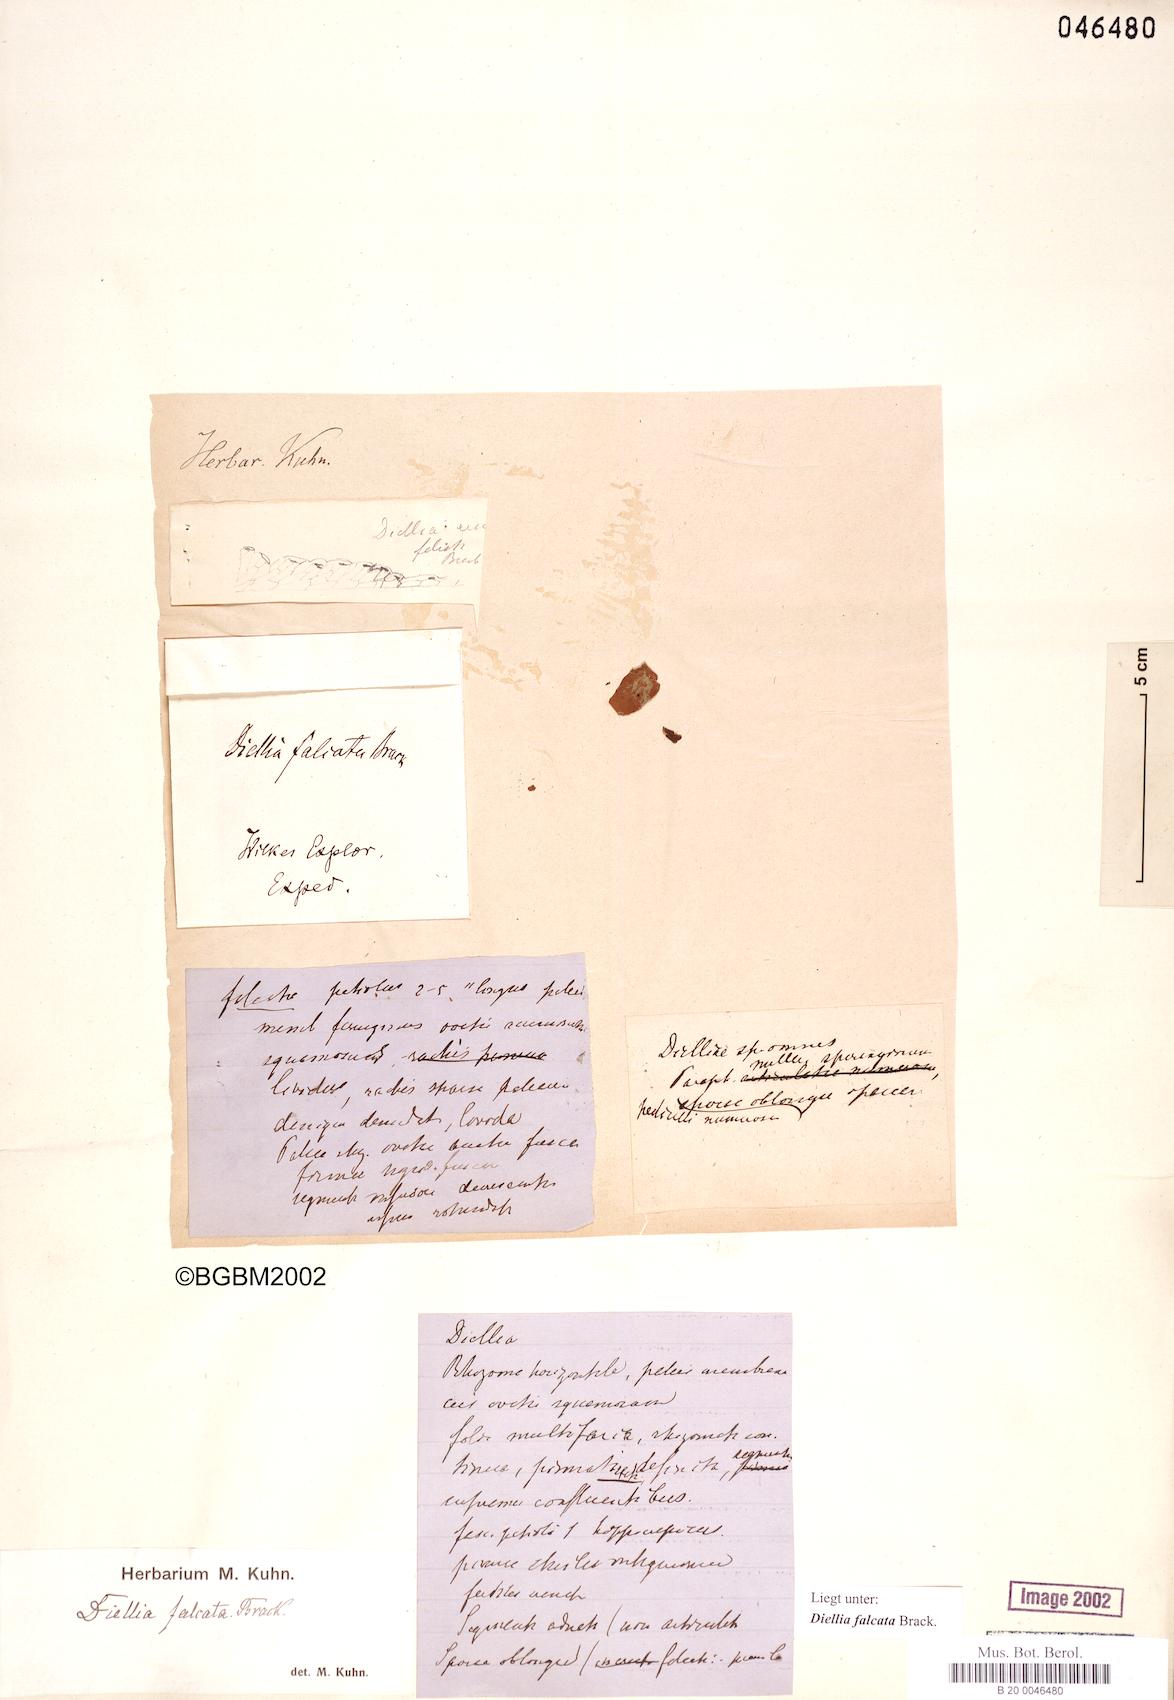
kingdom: Plantae
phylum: Tracheophyta
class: Polypodiopsida
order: Polypodiales
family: Aspleniaceae
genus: Asplenium
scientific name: Asplenium dielfalcatum
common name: Sickle island spleenwort
